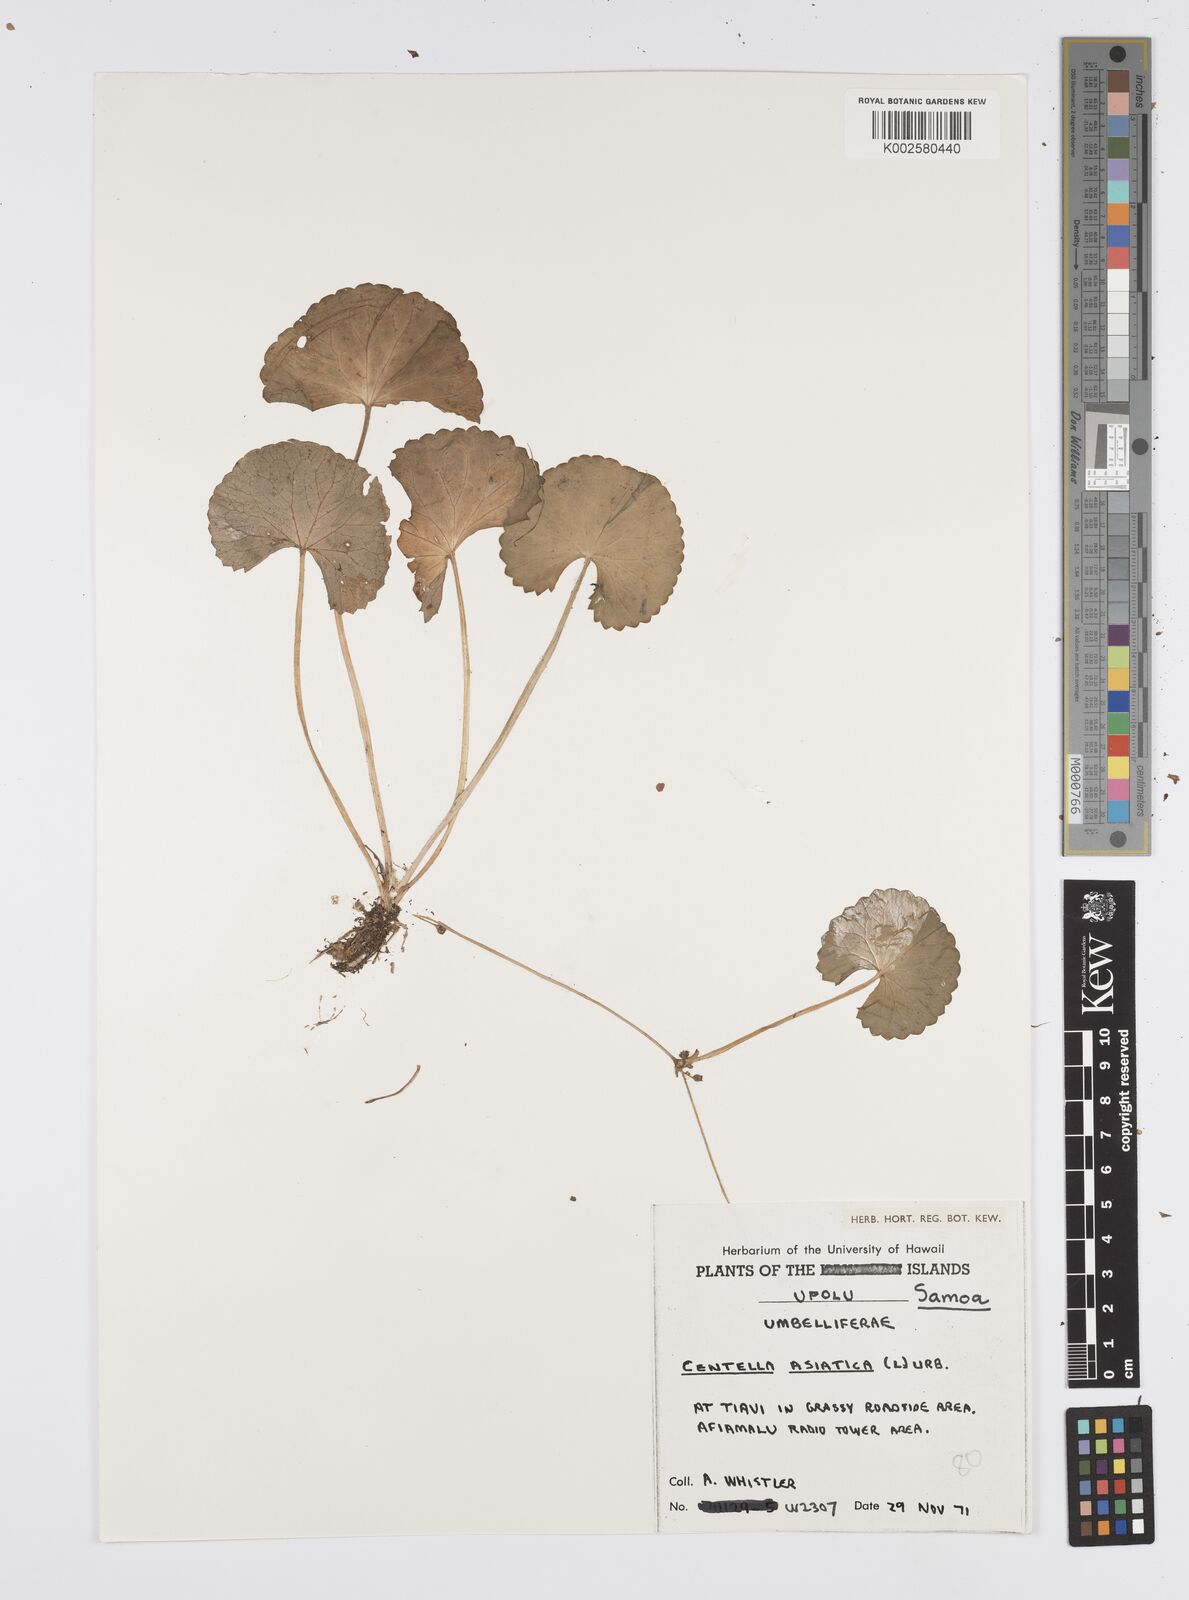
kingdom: Plantae
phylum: Tracheophyta
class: Magnoliopsida
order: Apiales
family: Apiaceae
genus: Centella
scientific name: Centella asiatica
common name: Spadeleaf
